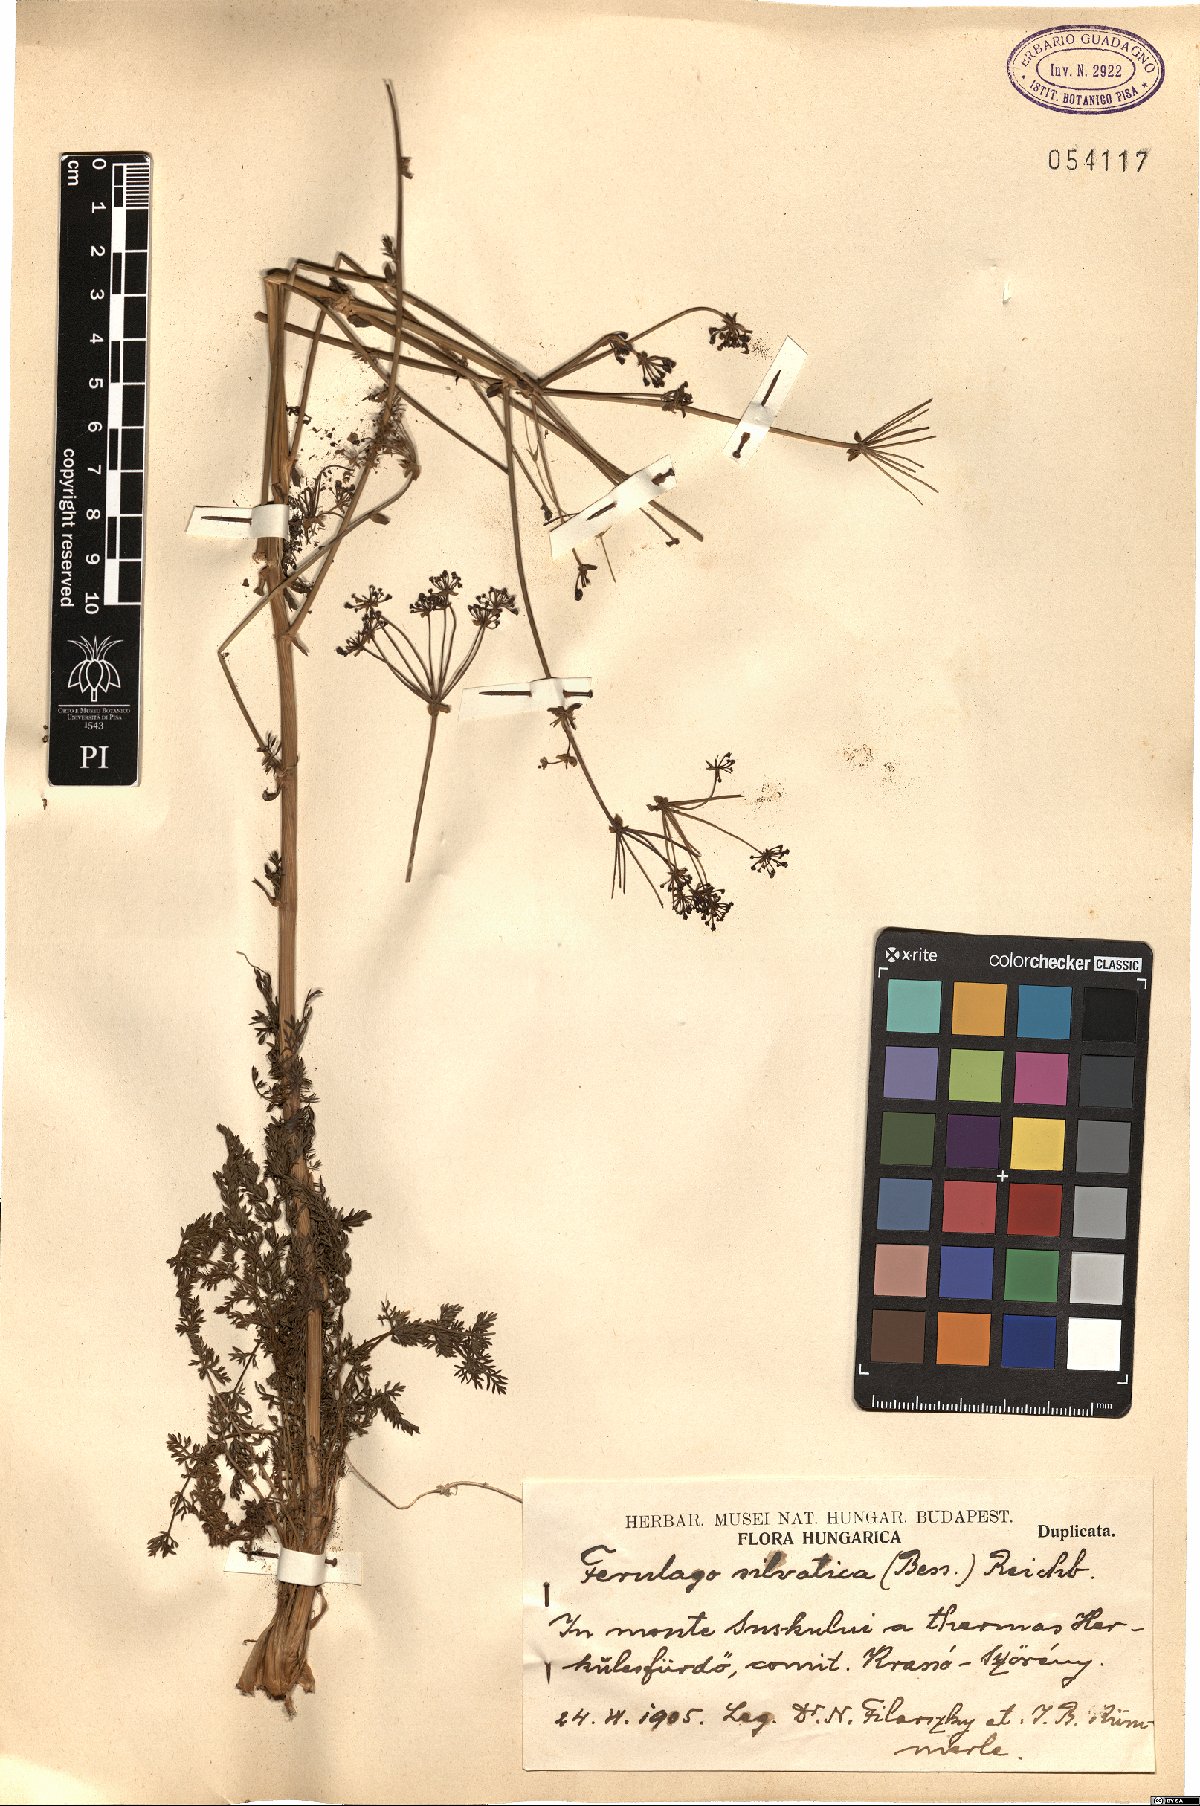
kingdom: Plantae
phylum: Tracheophyta
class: Magnoliopsida
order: Apiales
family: Apiaceae
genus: Ferulago
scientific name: Ferulago sylvatica
